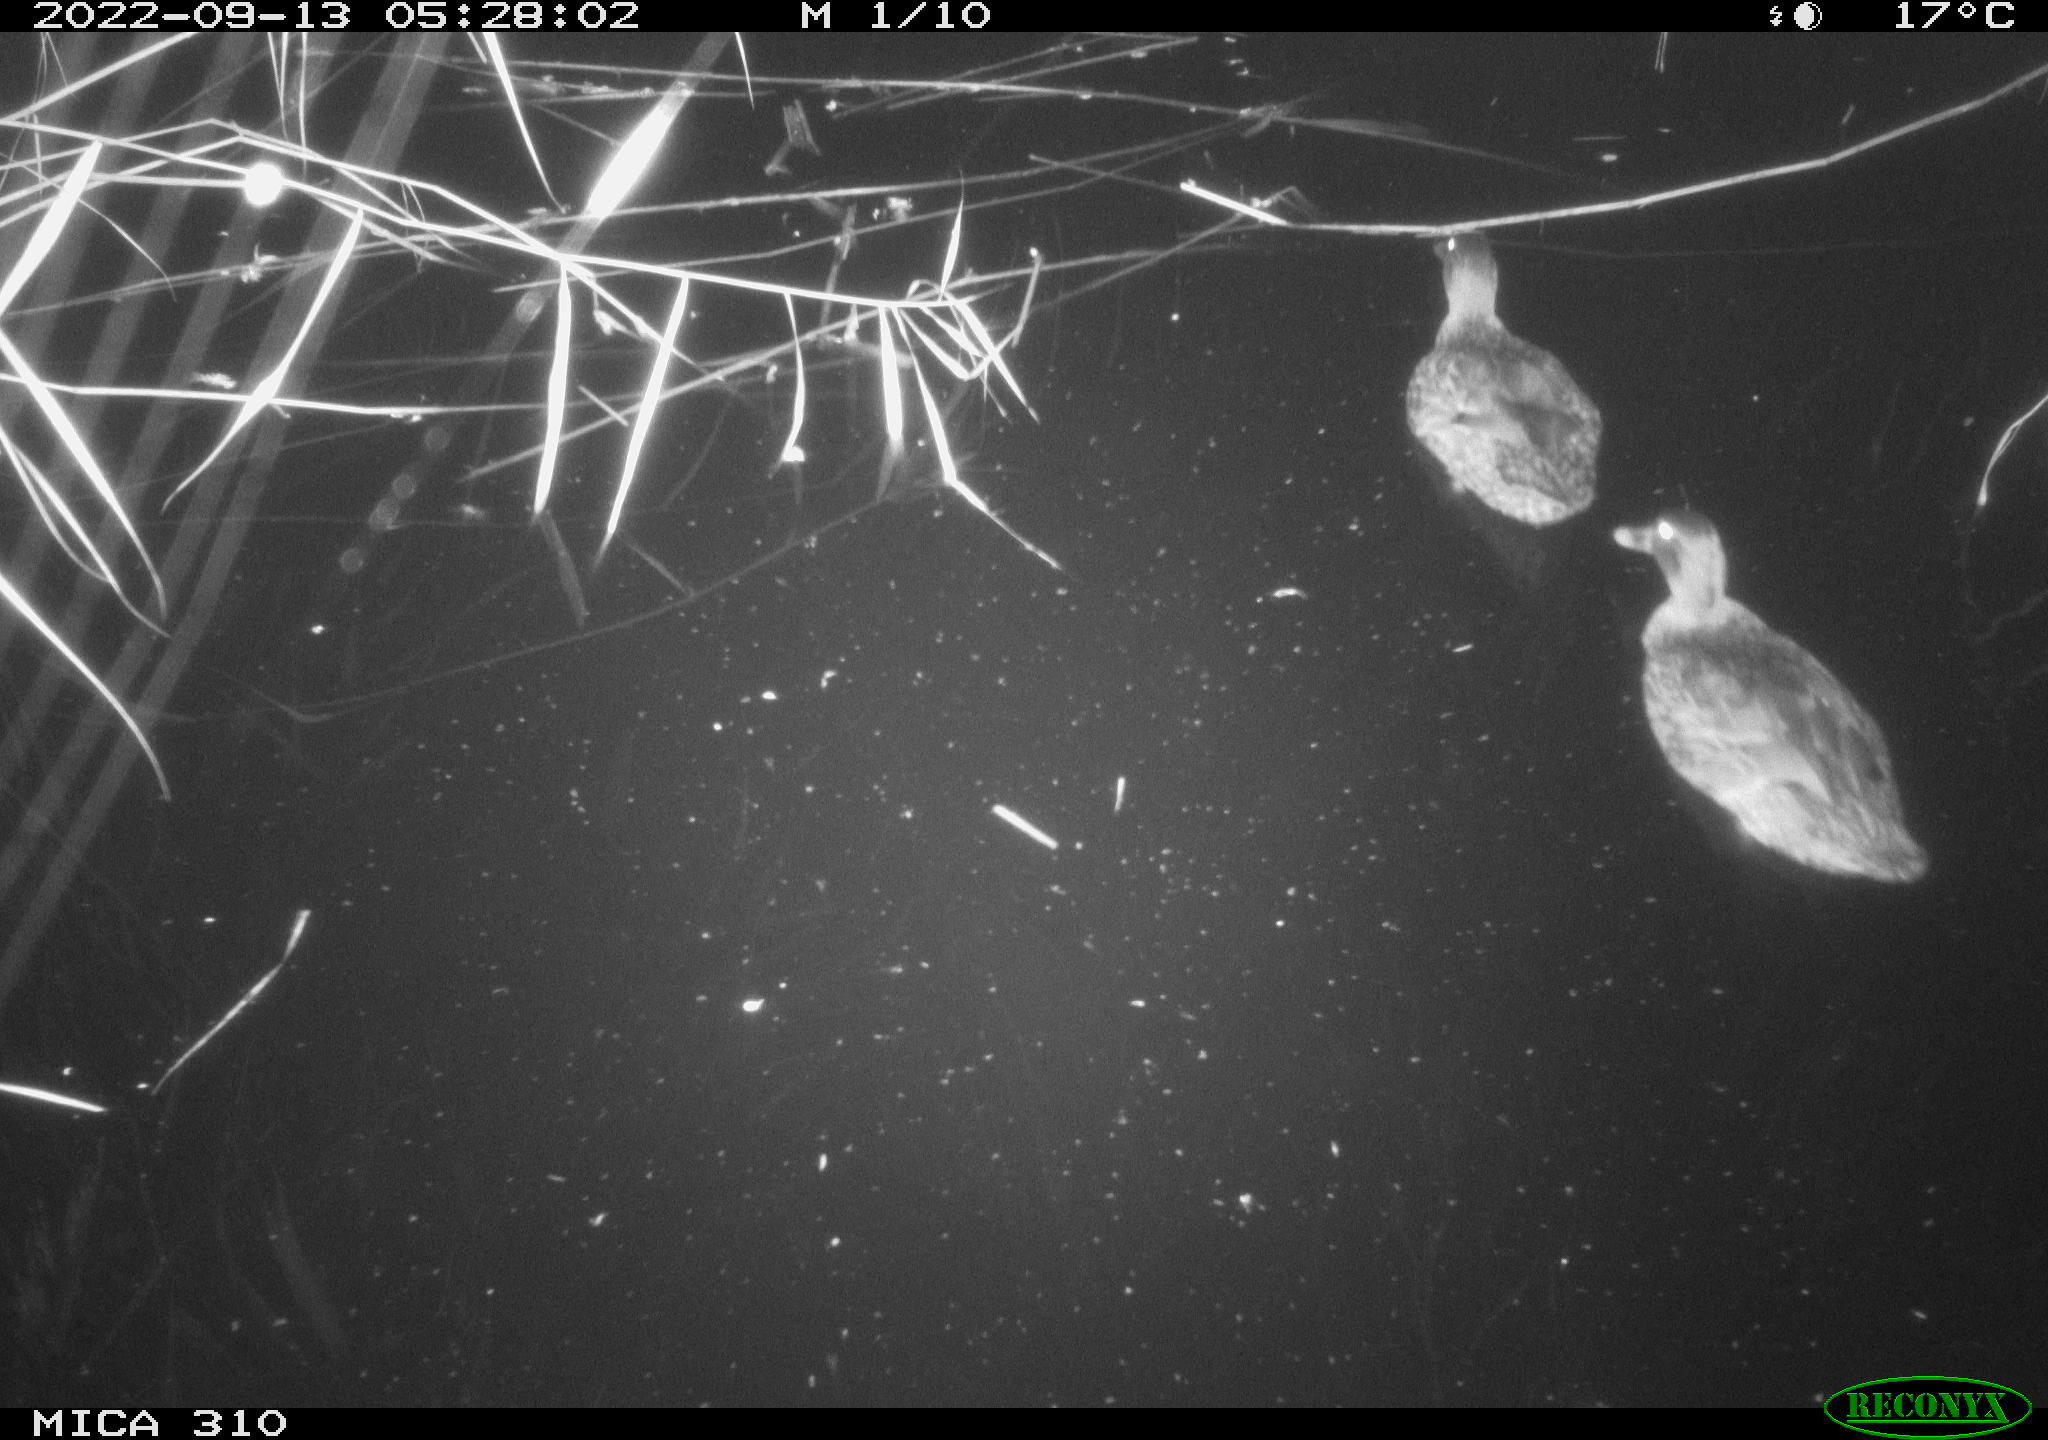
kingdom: Animalia
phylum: Chordata
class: Aves
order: Gruiformes
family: Rallidae
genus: Fulica
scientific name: Fulica atra
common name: Eurasian coot
